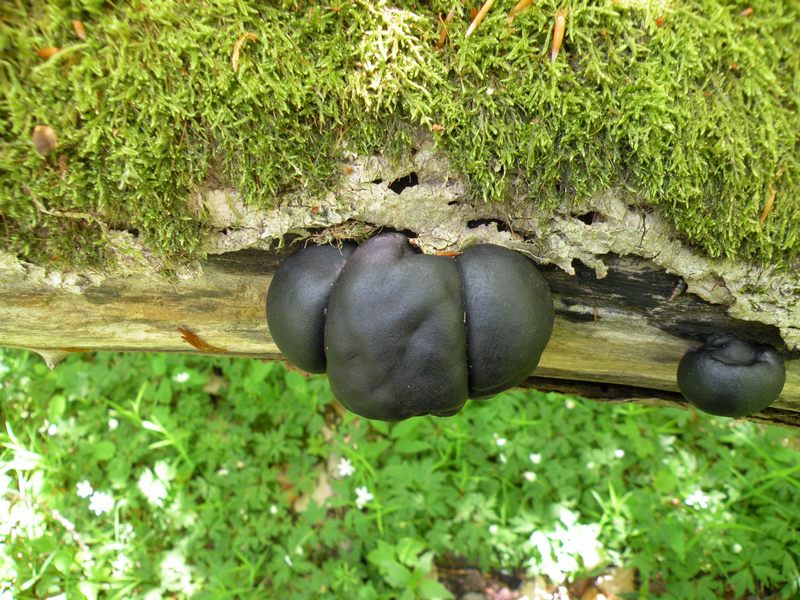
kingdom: Fungi
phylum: Ascomycota
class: Sordariomycetes
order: Xylariales
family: Hypoxylaceae
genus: Daldinia
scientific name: Daldinia concentrica
